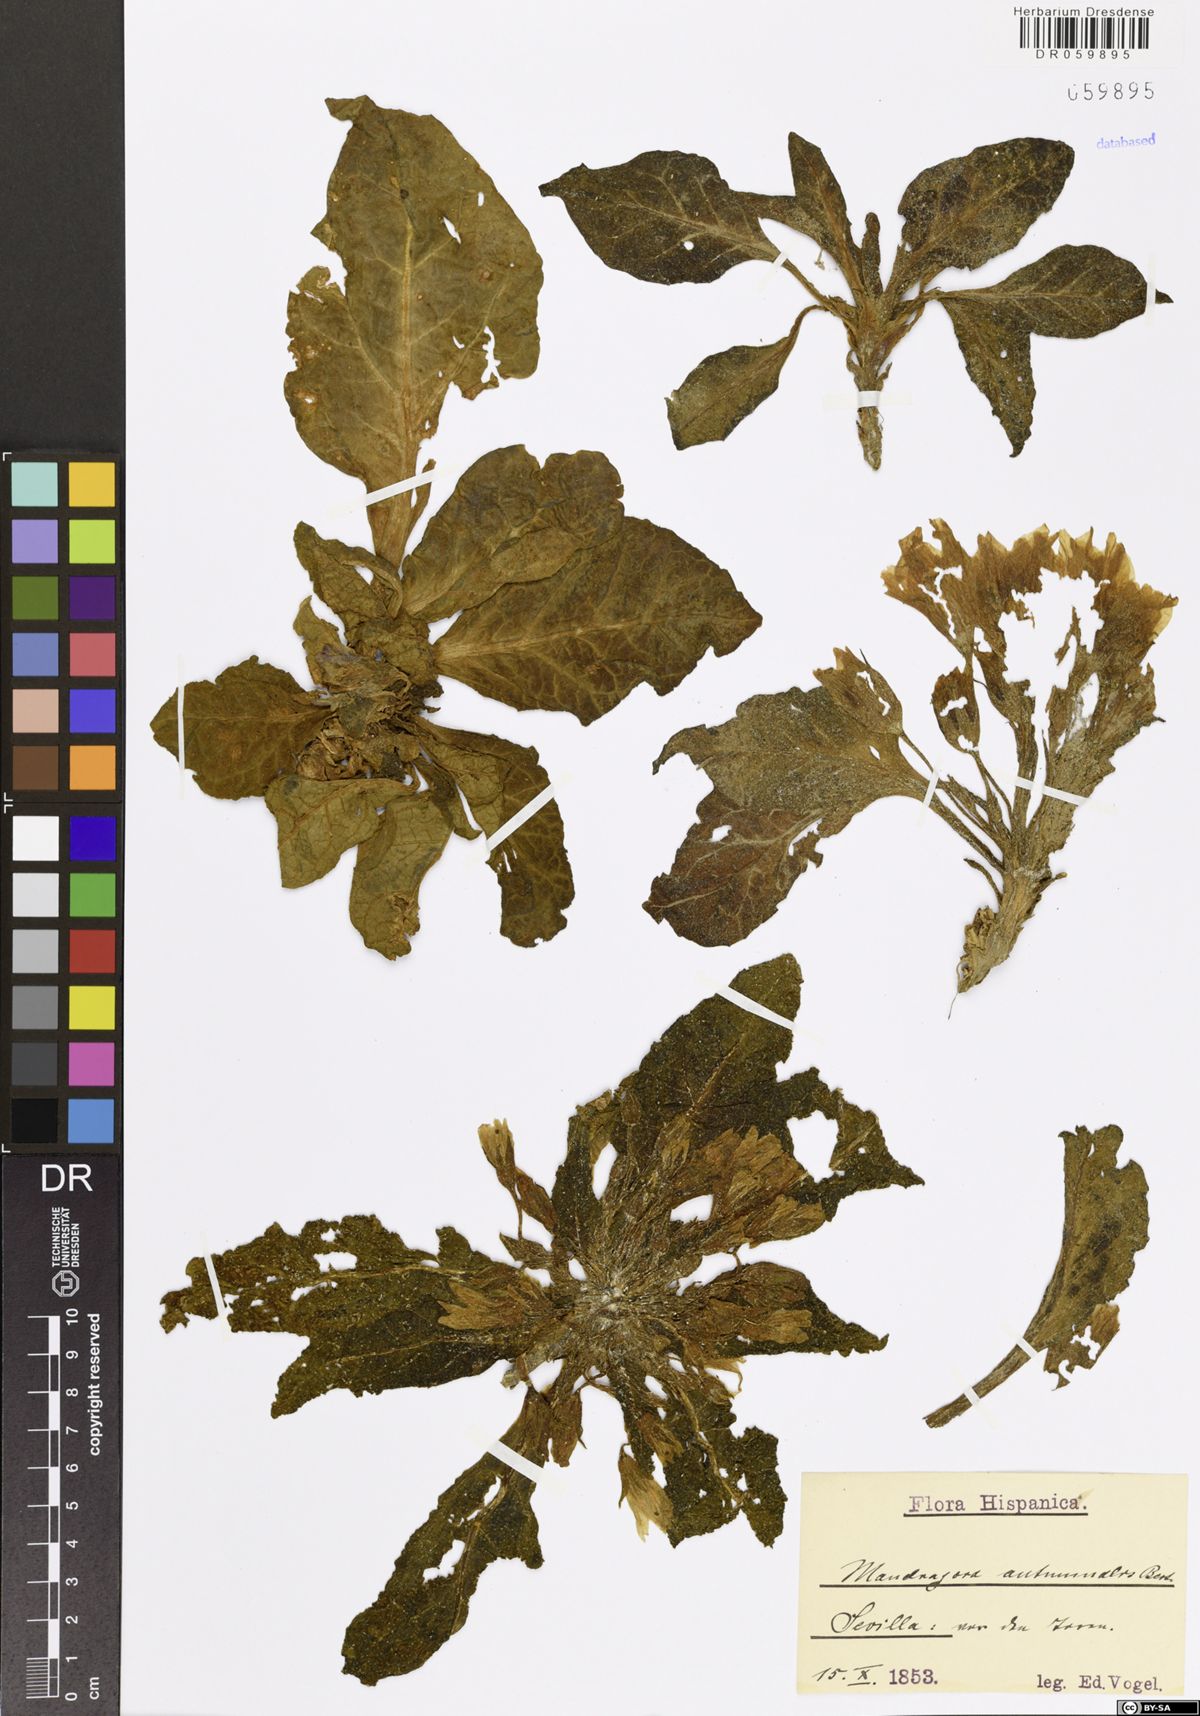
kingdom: Plantae
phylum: Tracheophyta
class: Magnoliopsida
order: Solanales
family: Solanaceae
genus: Mandragora
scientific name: Mandragora officinarum
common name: Mandrake
